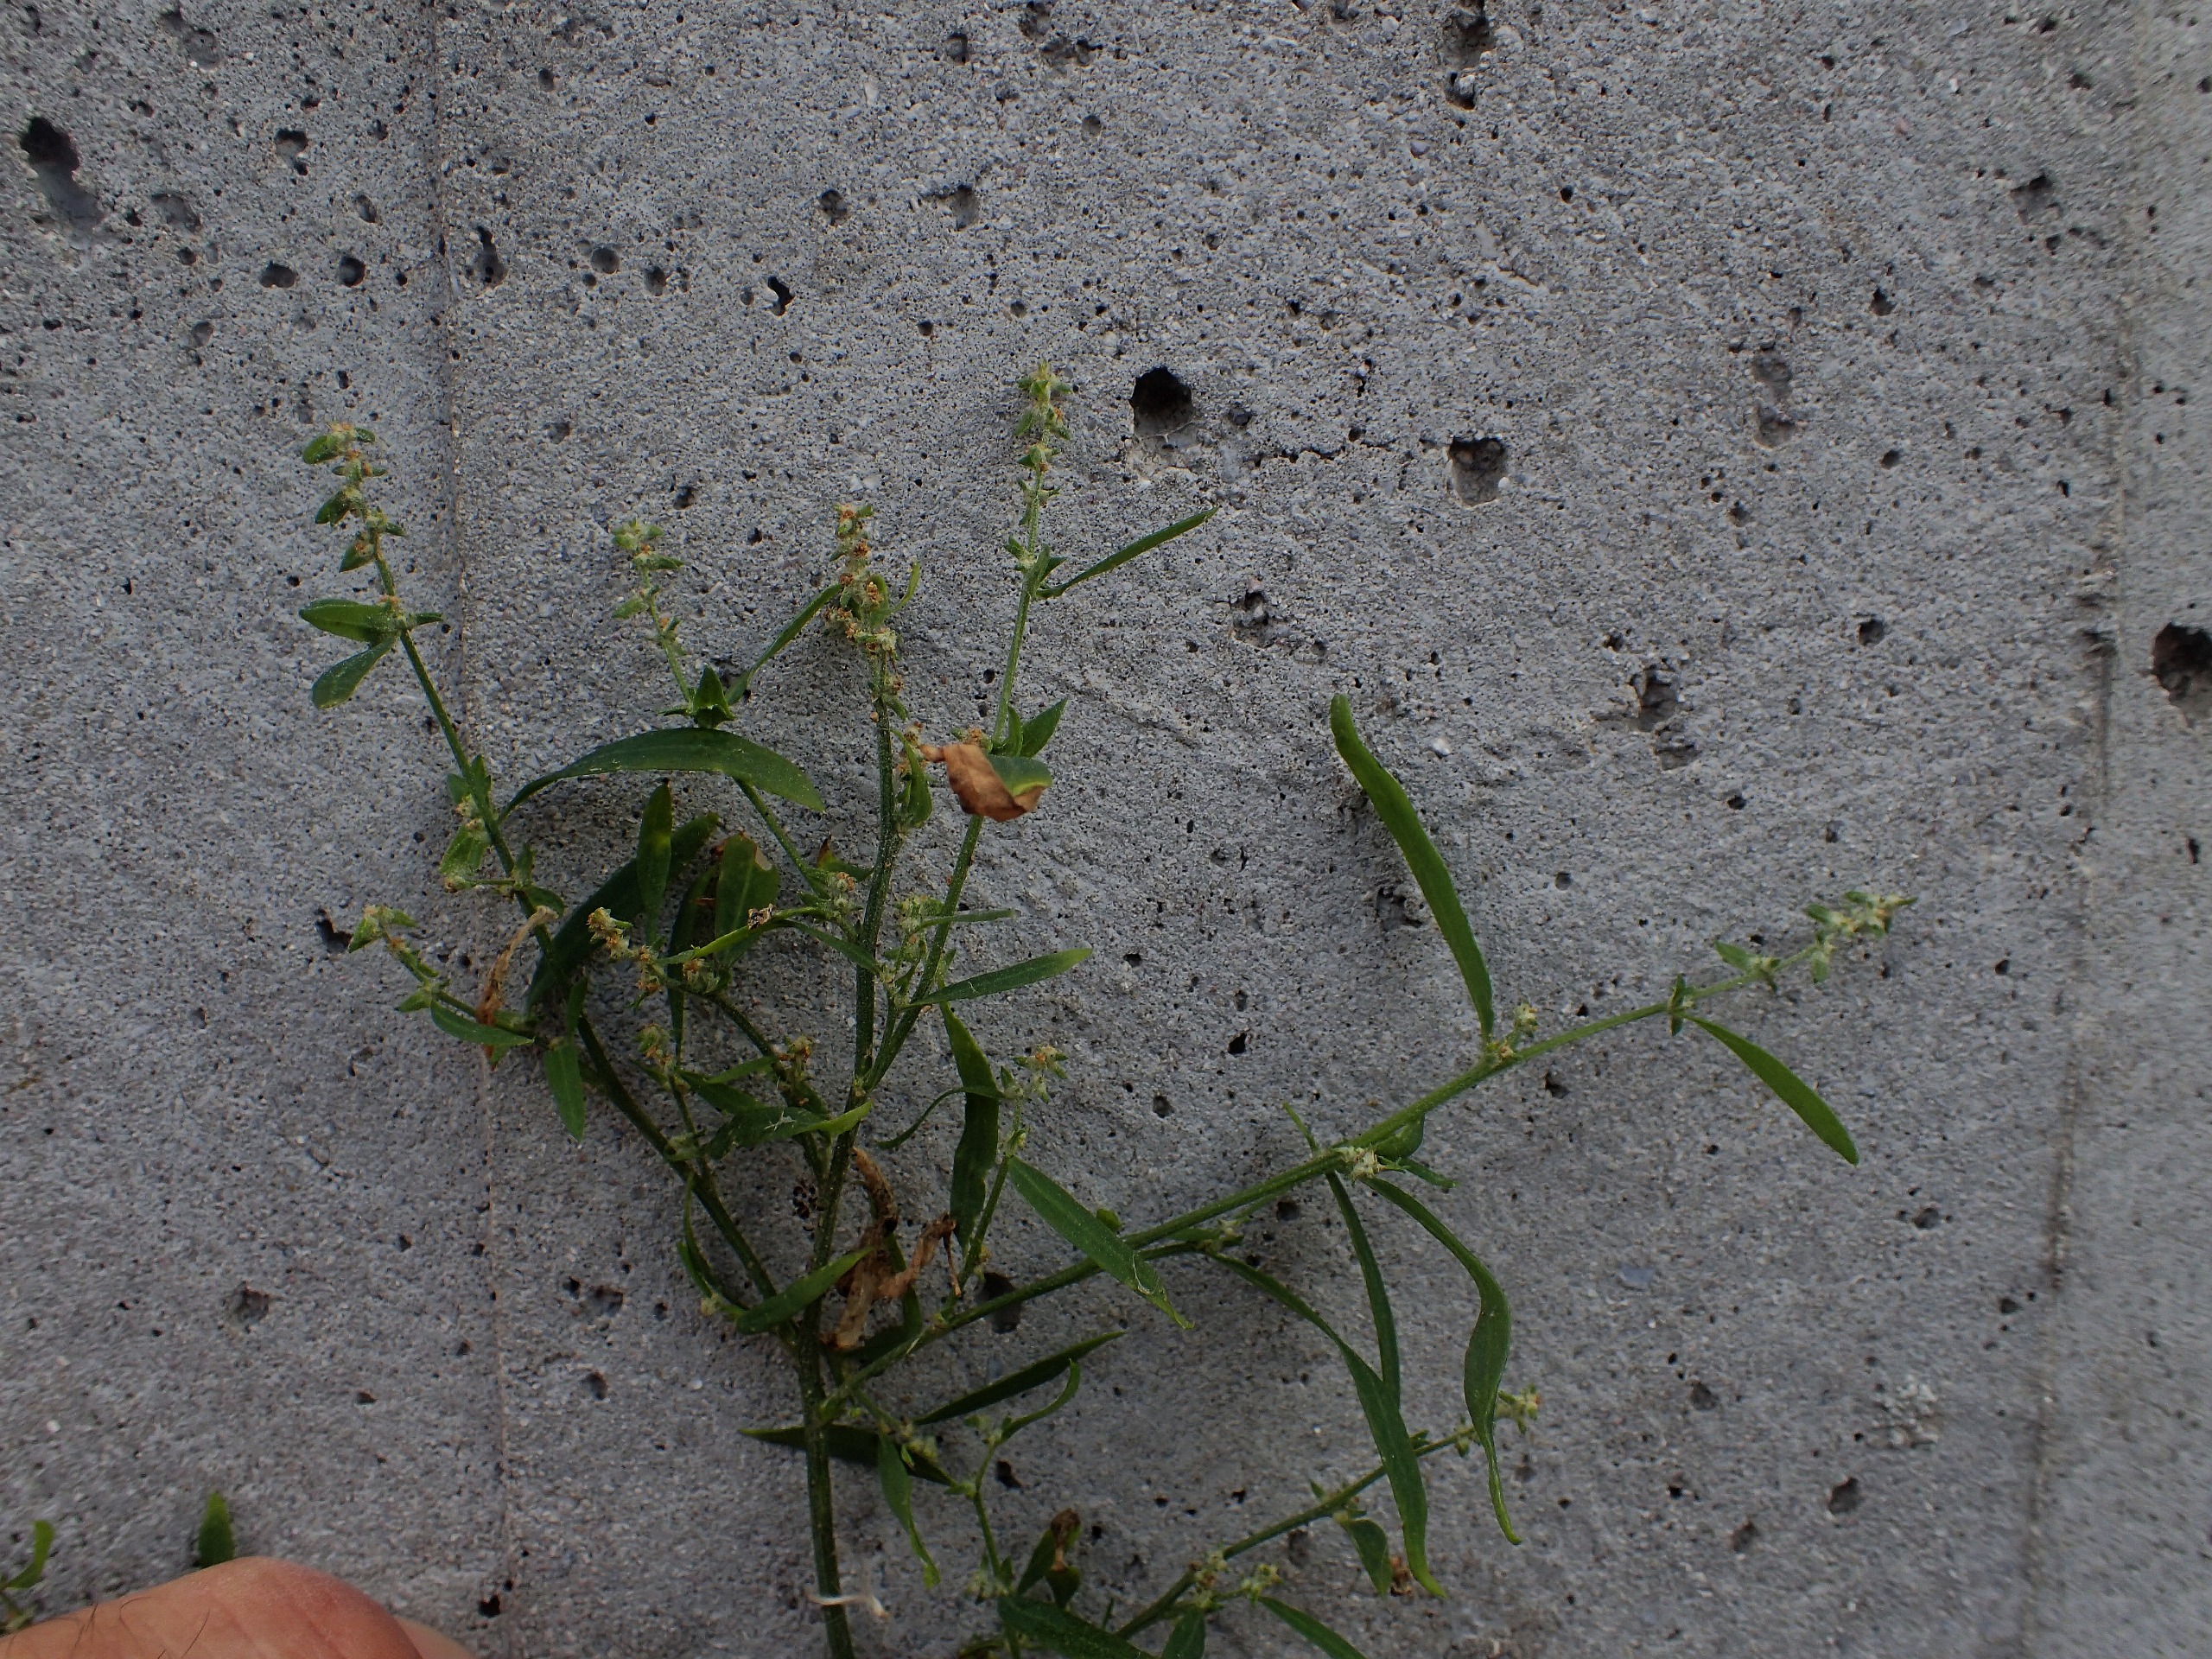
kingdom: Plantae
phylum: Tracheophyta
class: Magnoliopsida
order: Caryophyllales
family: Amaranthaceae
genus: Atriplex
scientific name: Atriplex patula
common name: Svine-mælde
